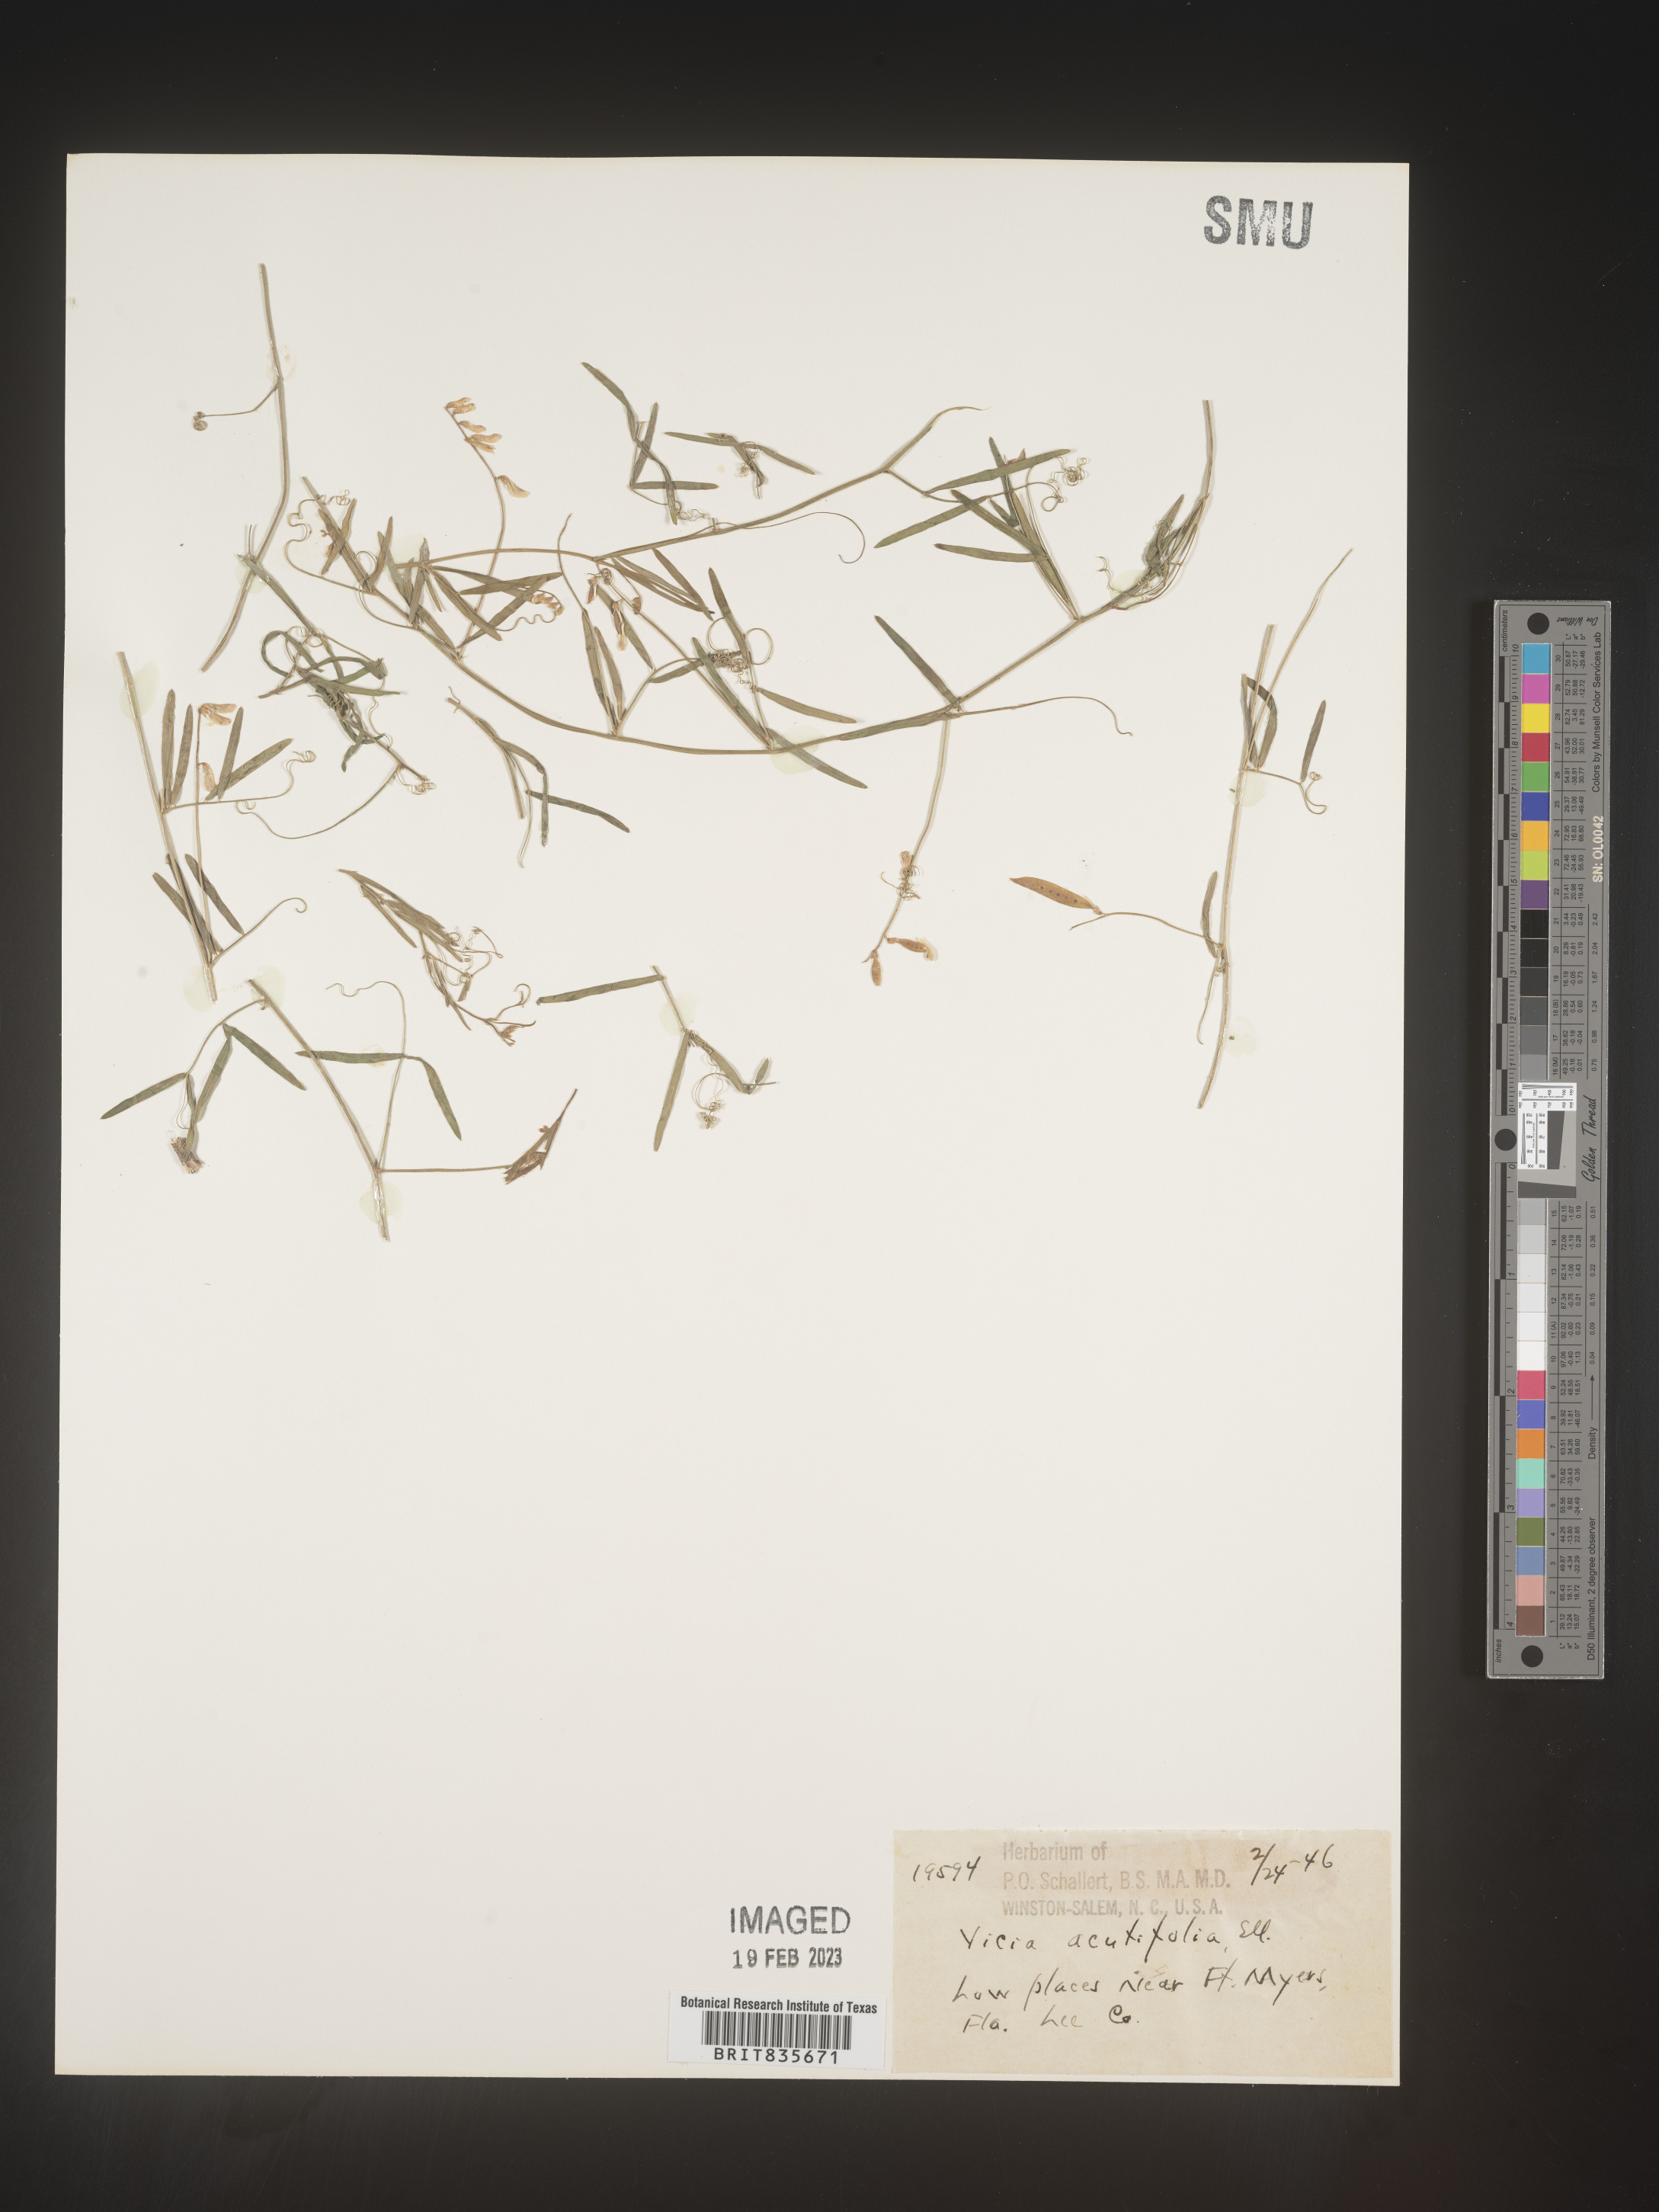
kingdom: Plantae
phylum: Tracheophyta
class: Magnoliopsida
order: Fabales
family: Fabaceae
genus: Vicia
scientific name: Vicia acutifolia
